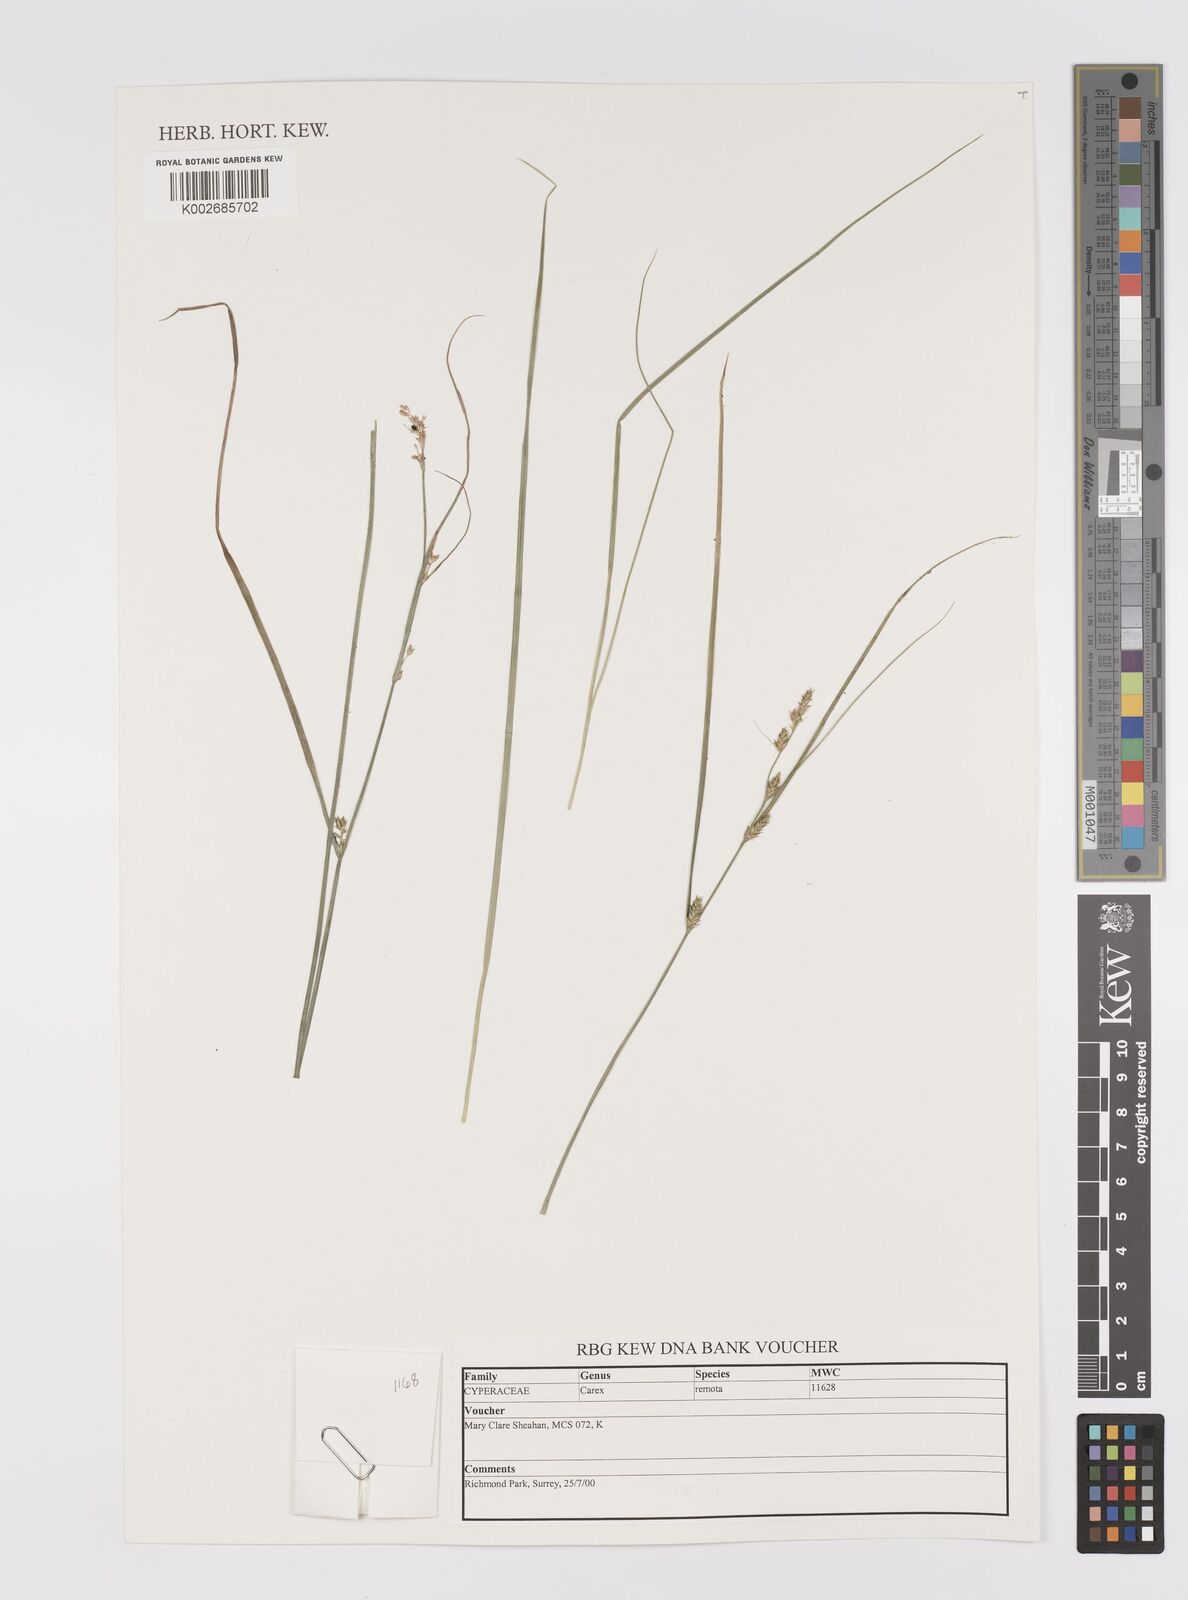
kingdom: Plantae
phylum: Tracheophyta
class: Liliopsida
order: Poales
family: Cyperaceae
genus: Carex
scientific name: Carex remota
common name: Remote sedge
